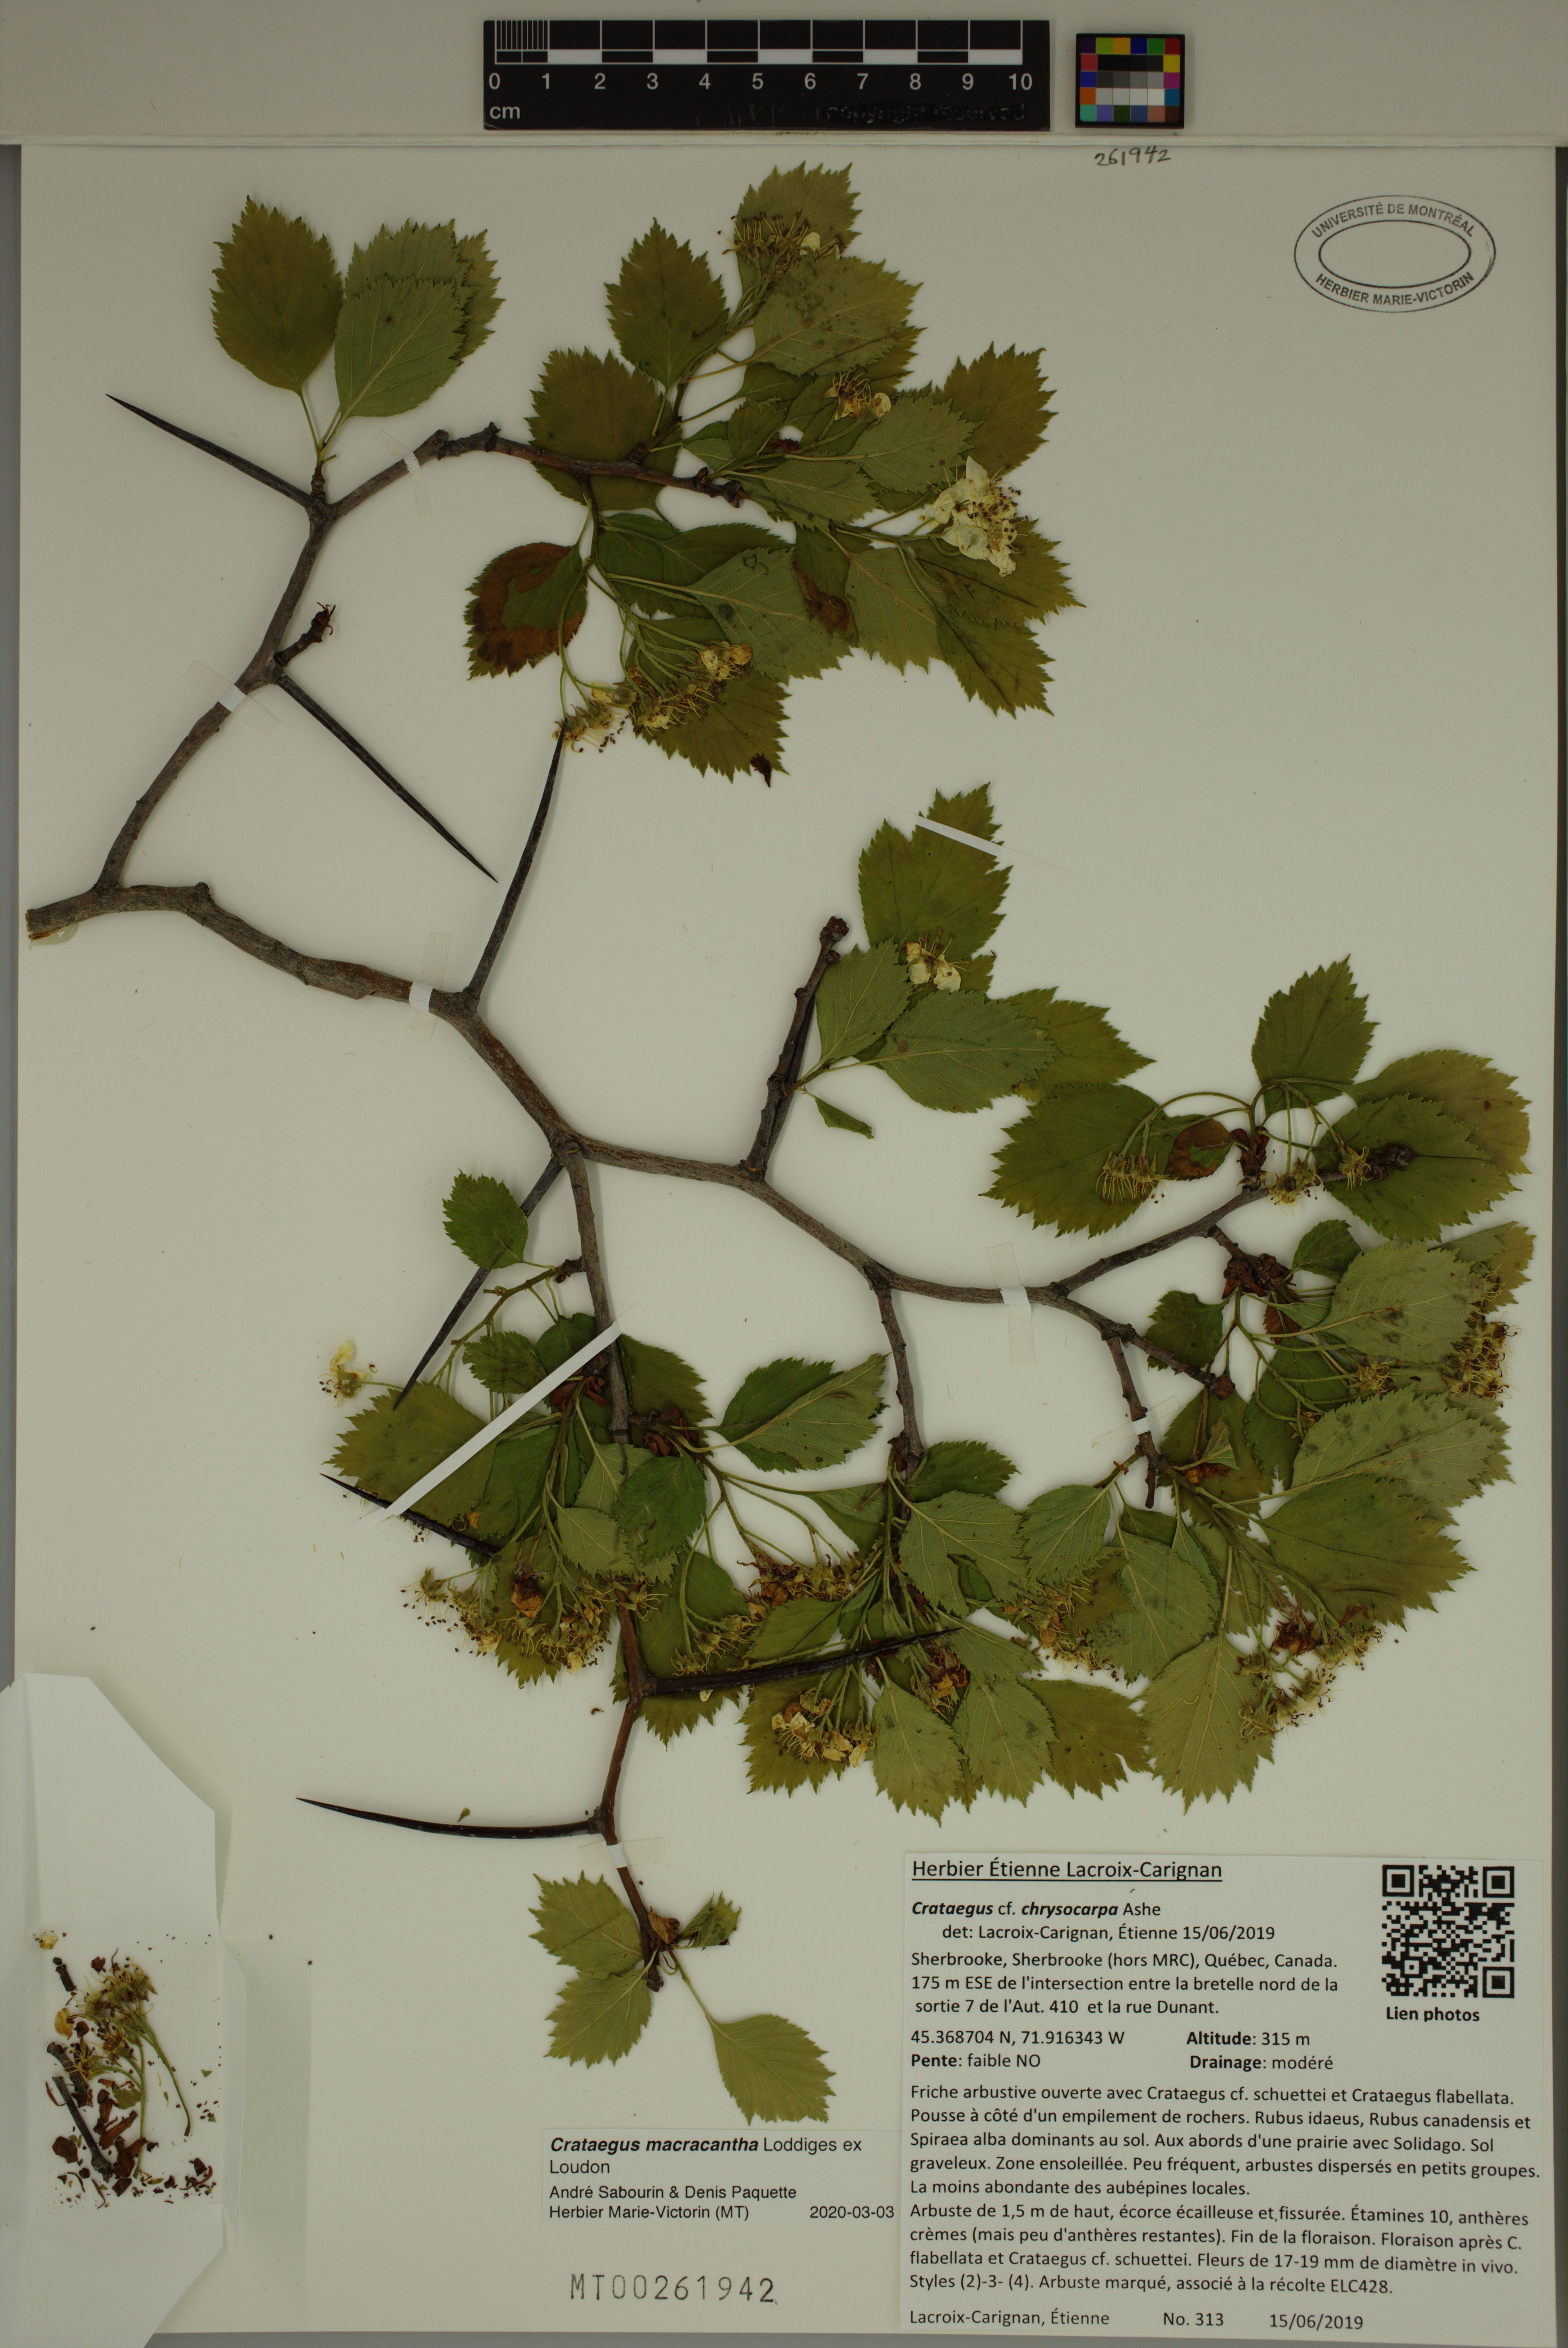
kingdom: Plantae
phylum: Tracheophyta
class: Magnoliopsida
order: Rosales
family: Rosaceae
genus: Crataegus
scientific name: Crataegus macracantha
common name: Large-thorn hawthorn
